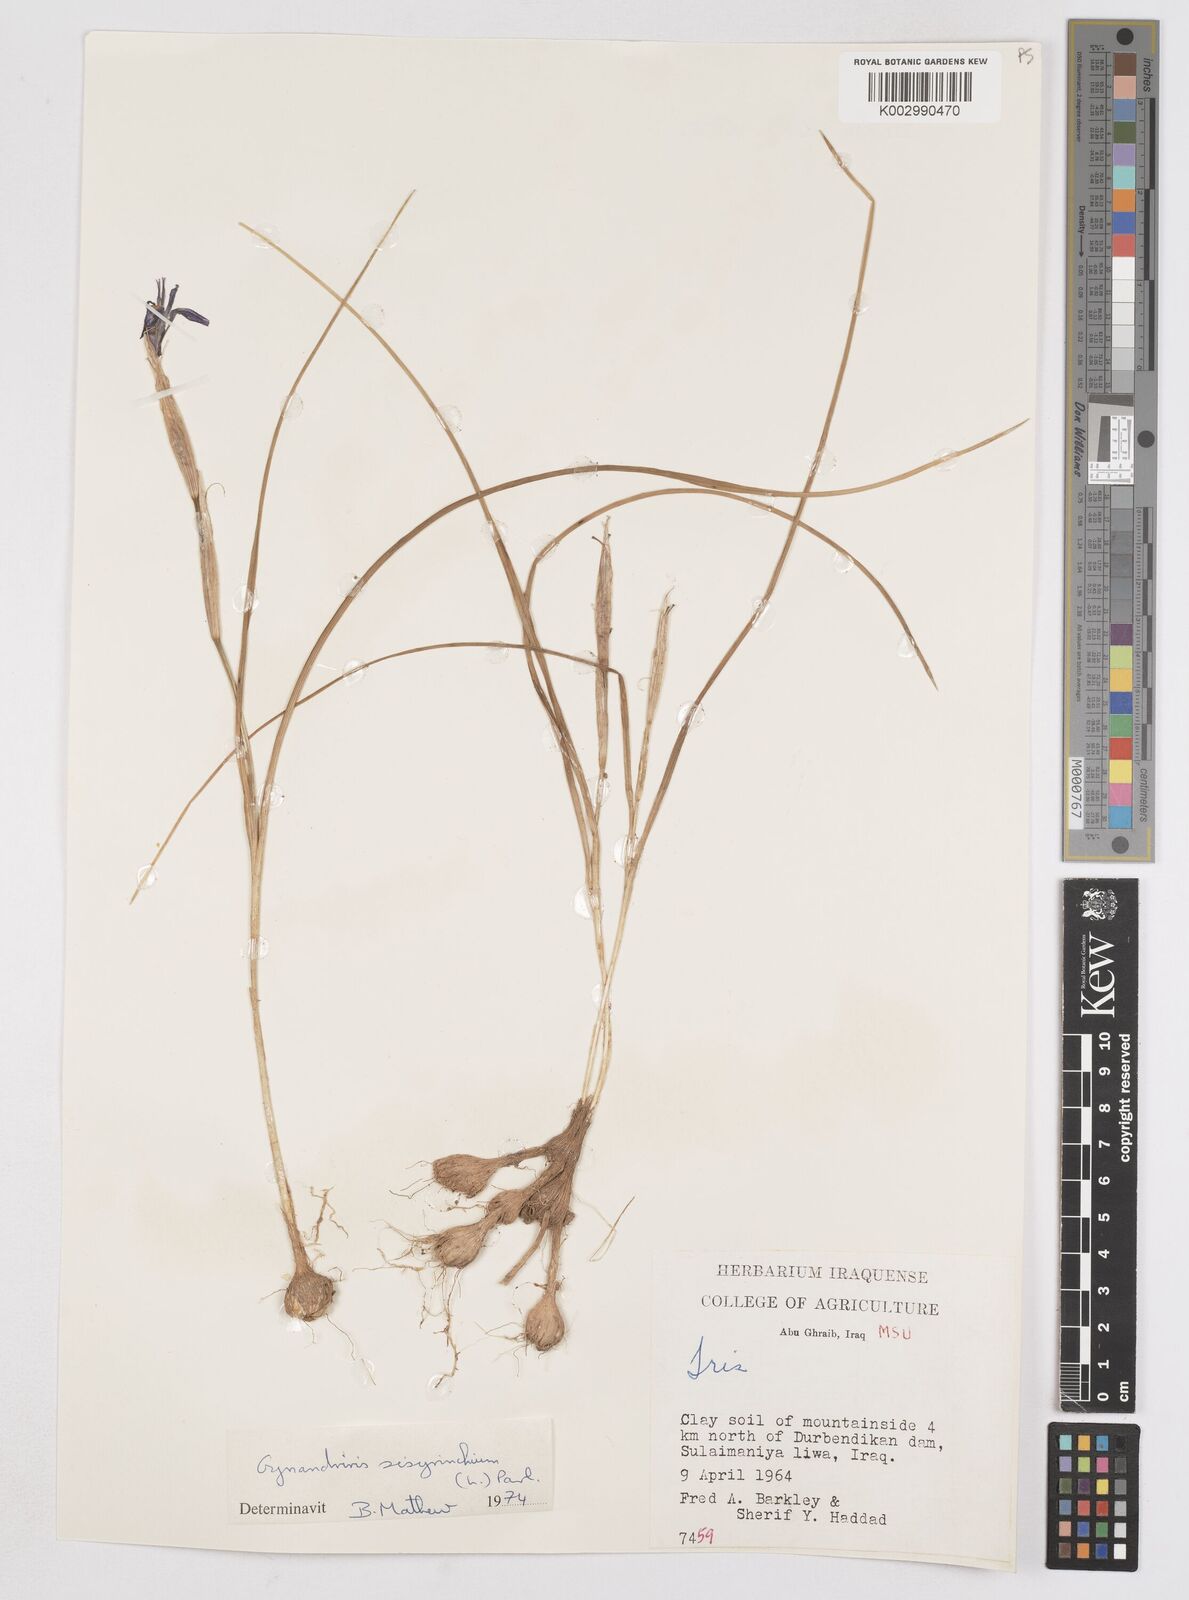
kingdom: Plantae
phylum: Tracheophyta
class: Liliopsida
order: Asparagales
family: Iridaceae
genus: Moraea
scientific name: Moraea sisyrinchium
